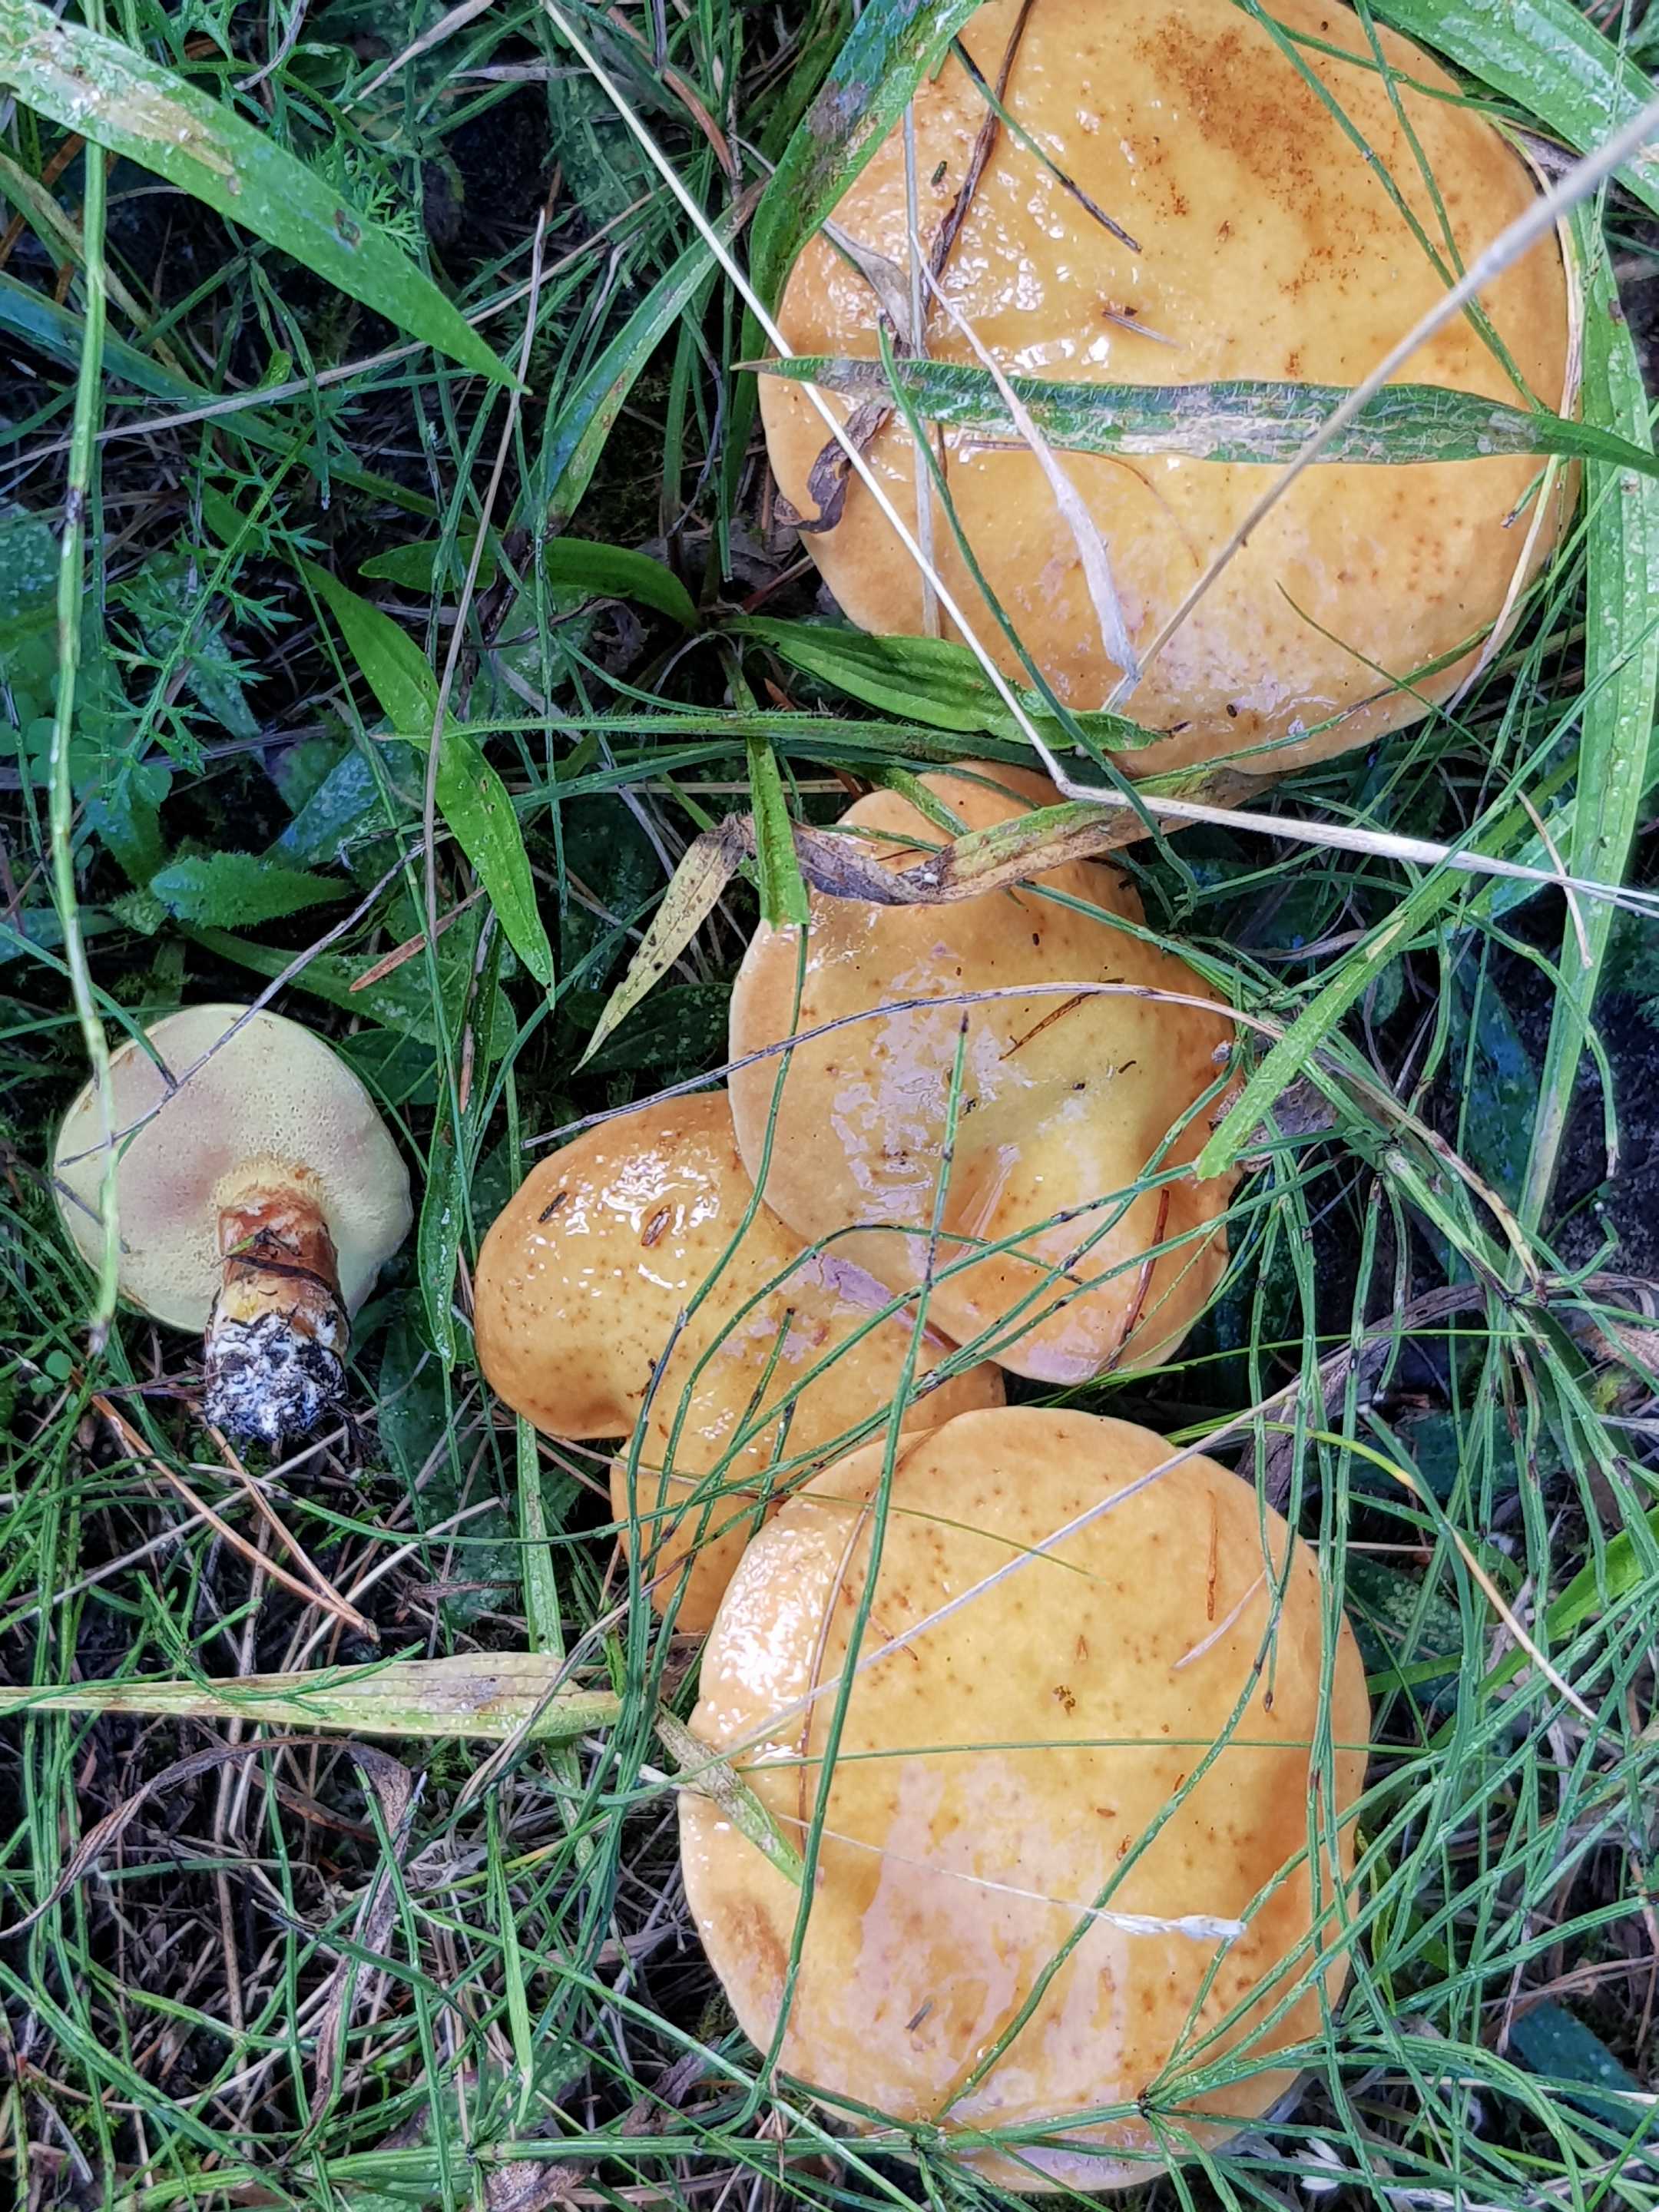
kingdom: Fungi
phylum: Basidiomycota
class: Agaricomycetes
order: Boletales
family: Suillaceae
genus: Suillus
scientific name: Suillus grevillei
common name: lærke-slimrørhat
